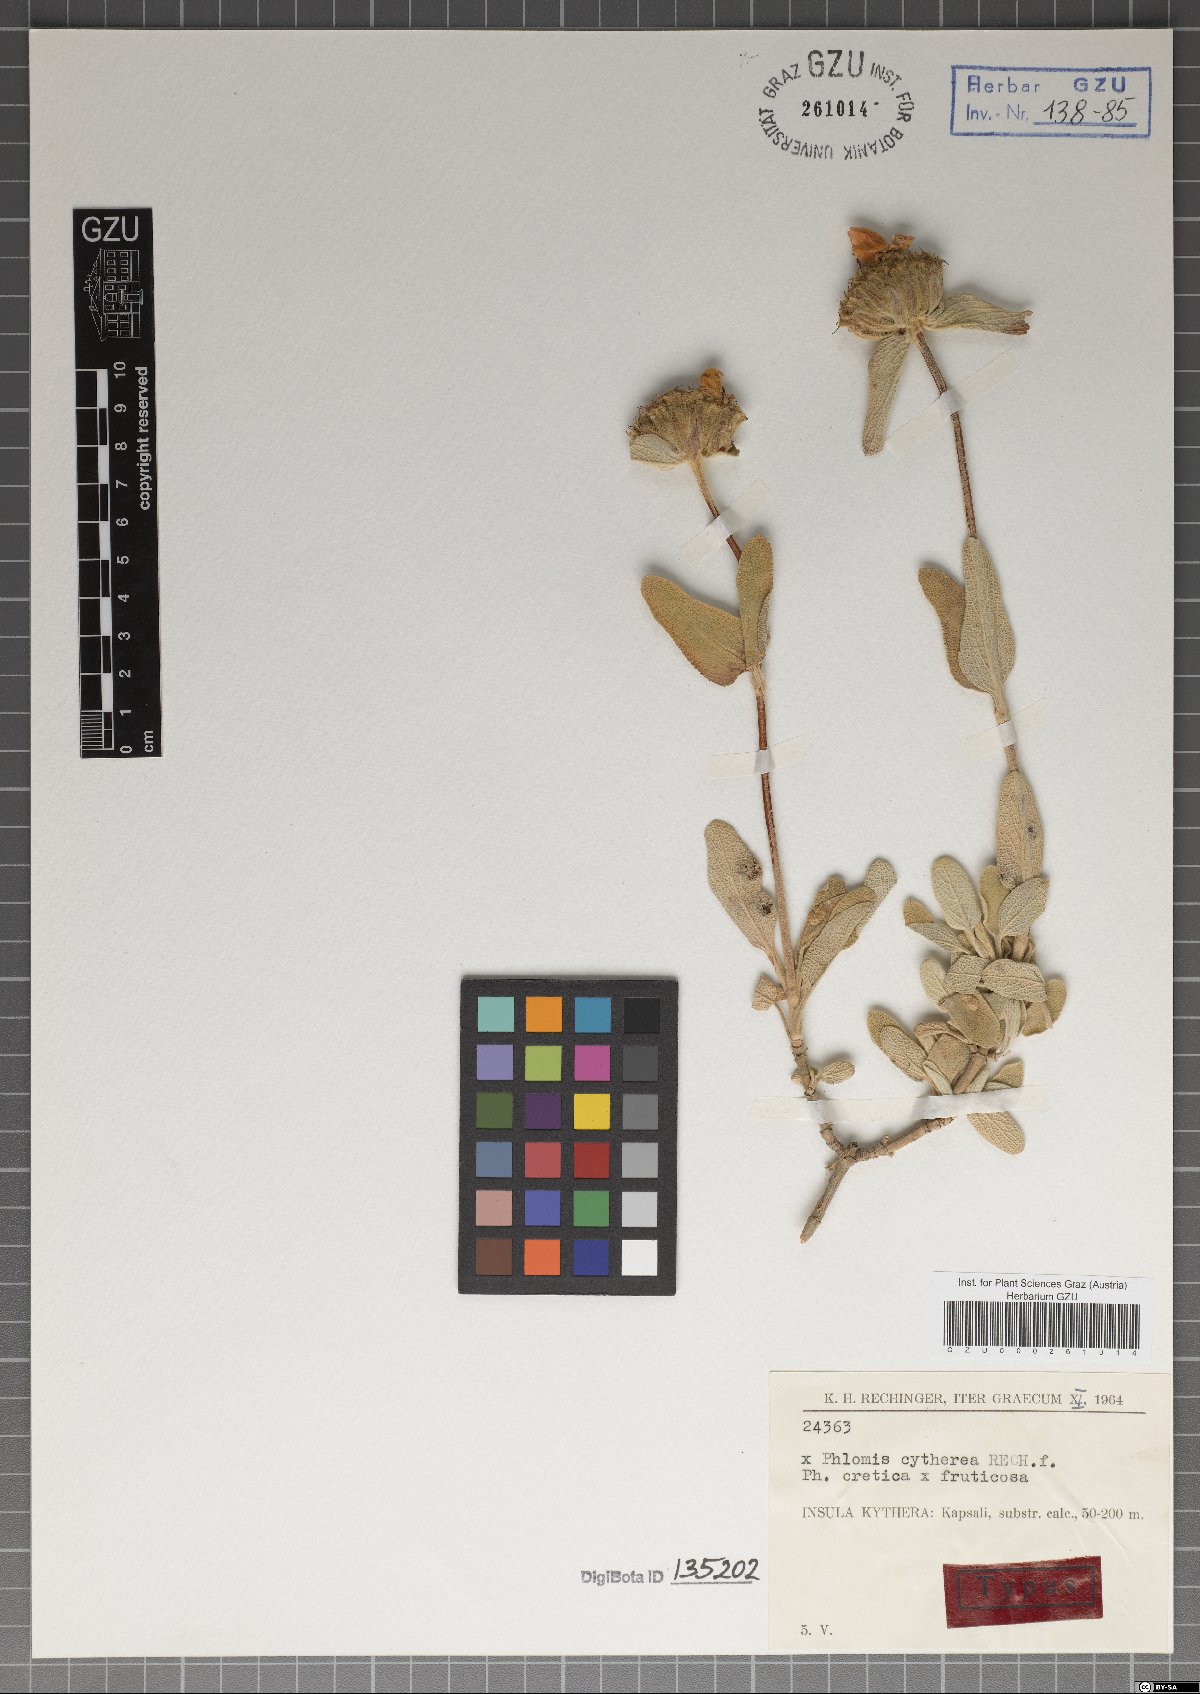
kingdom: Plantae
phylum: Tracheophyta
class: Magnoliopsida
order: Lamiales
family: Lamiaceae
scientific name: Lamiaceae
